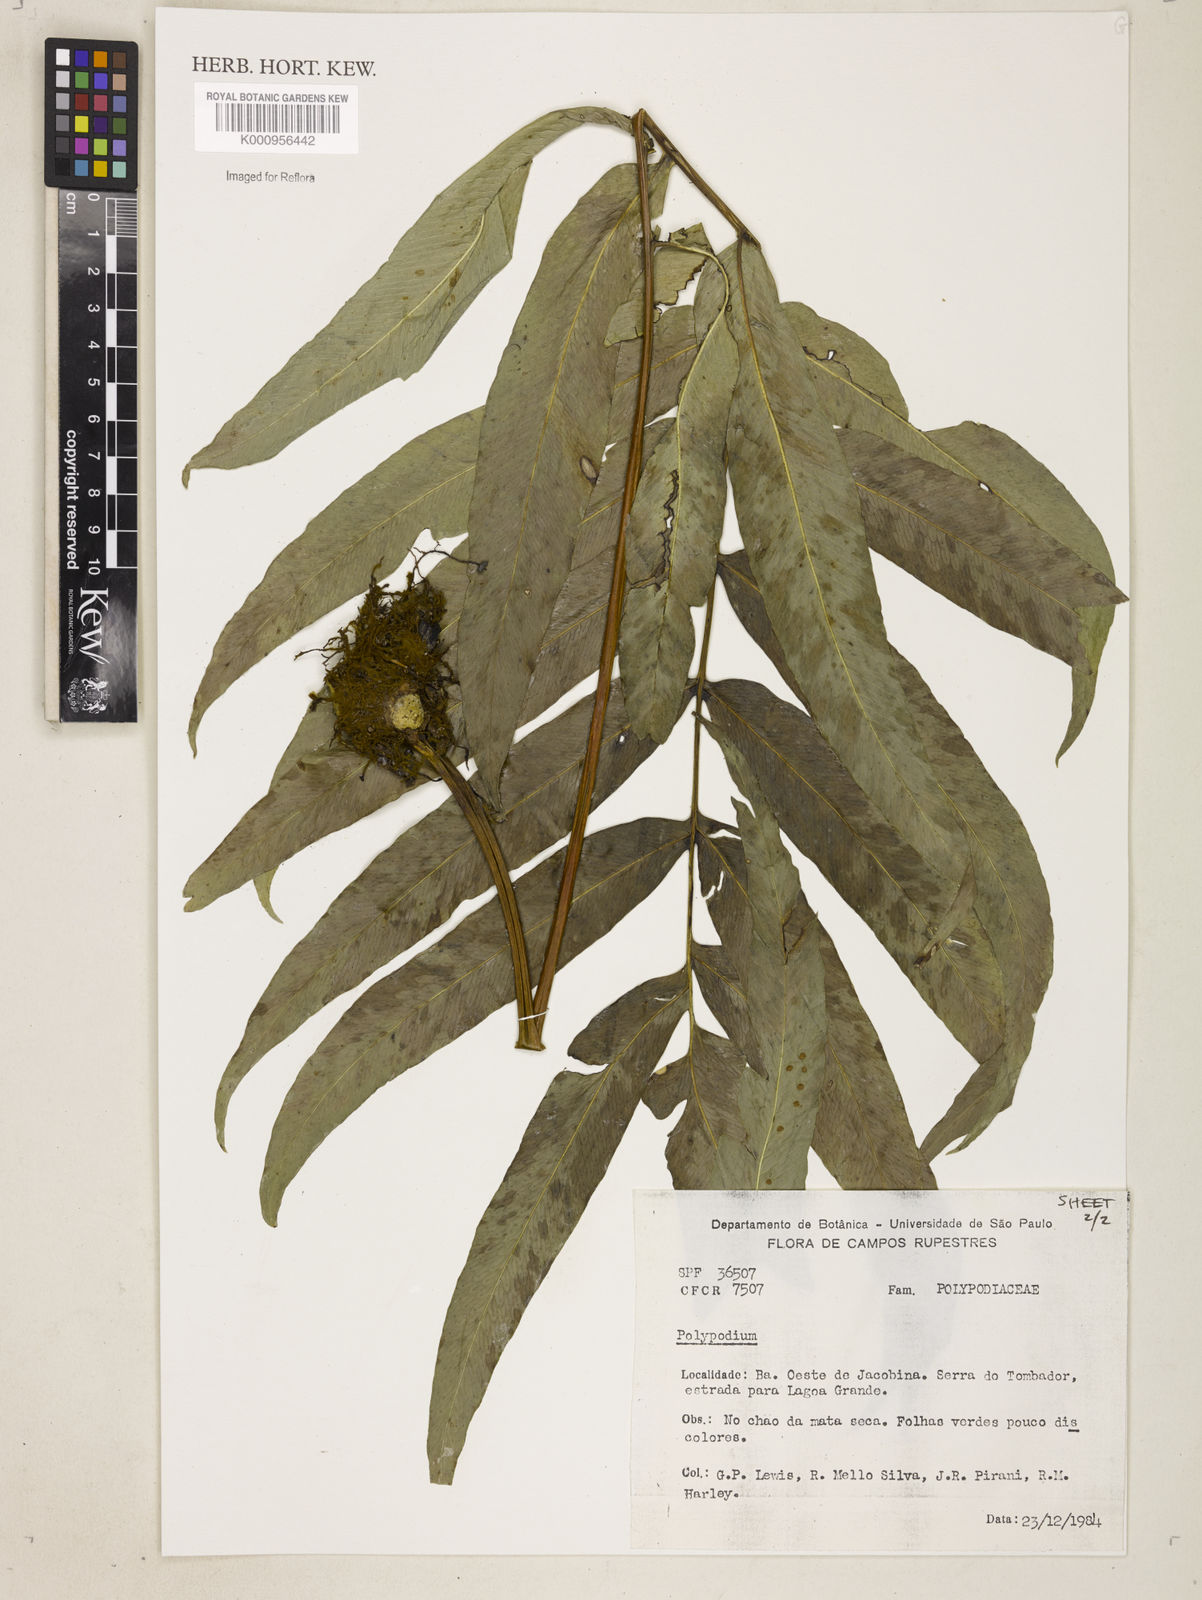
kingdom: Plantae
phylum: Tracheophyta
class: Polypodiopsida
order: Polypodiales
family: Polypodiaceae
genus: Polypodium
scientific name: Polypodium
